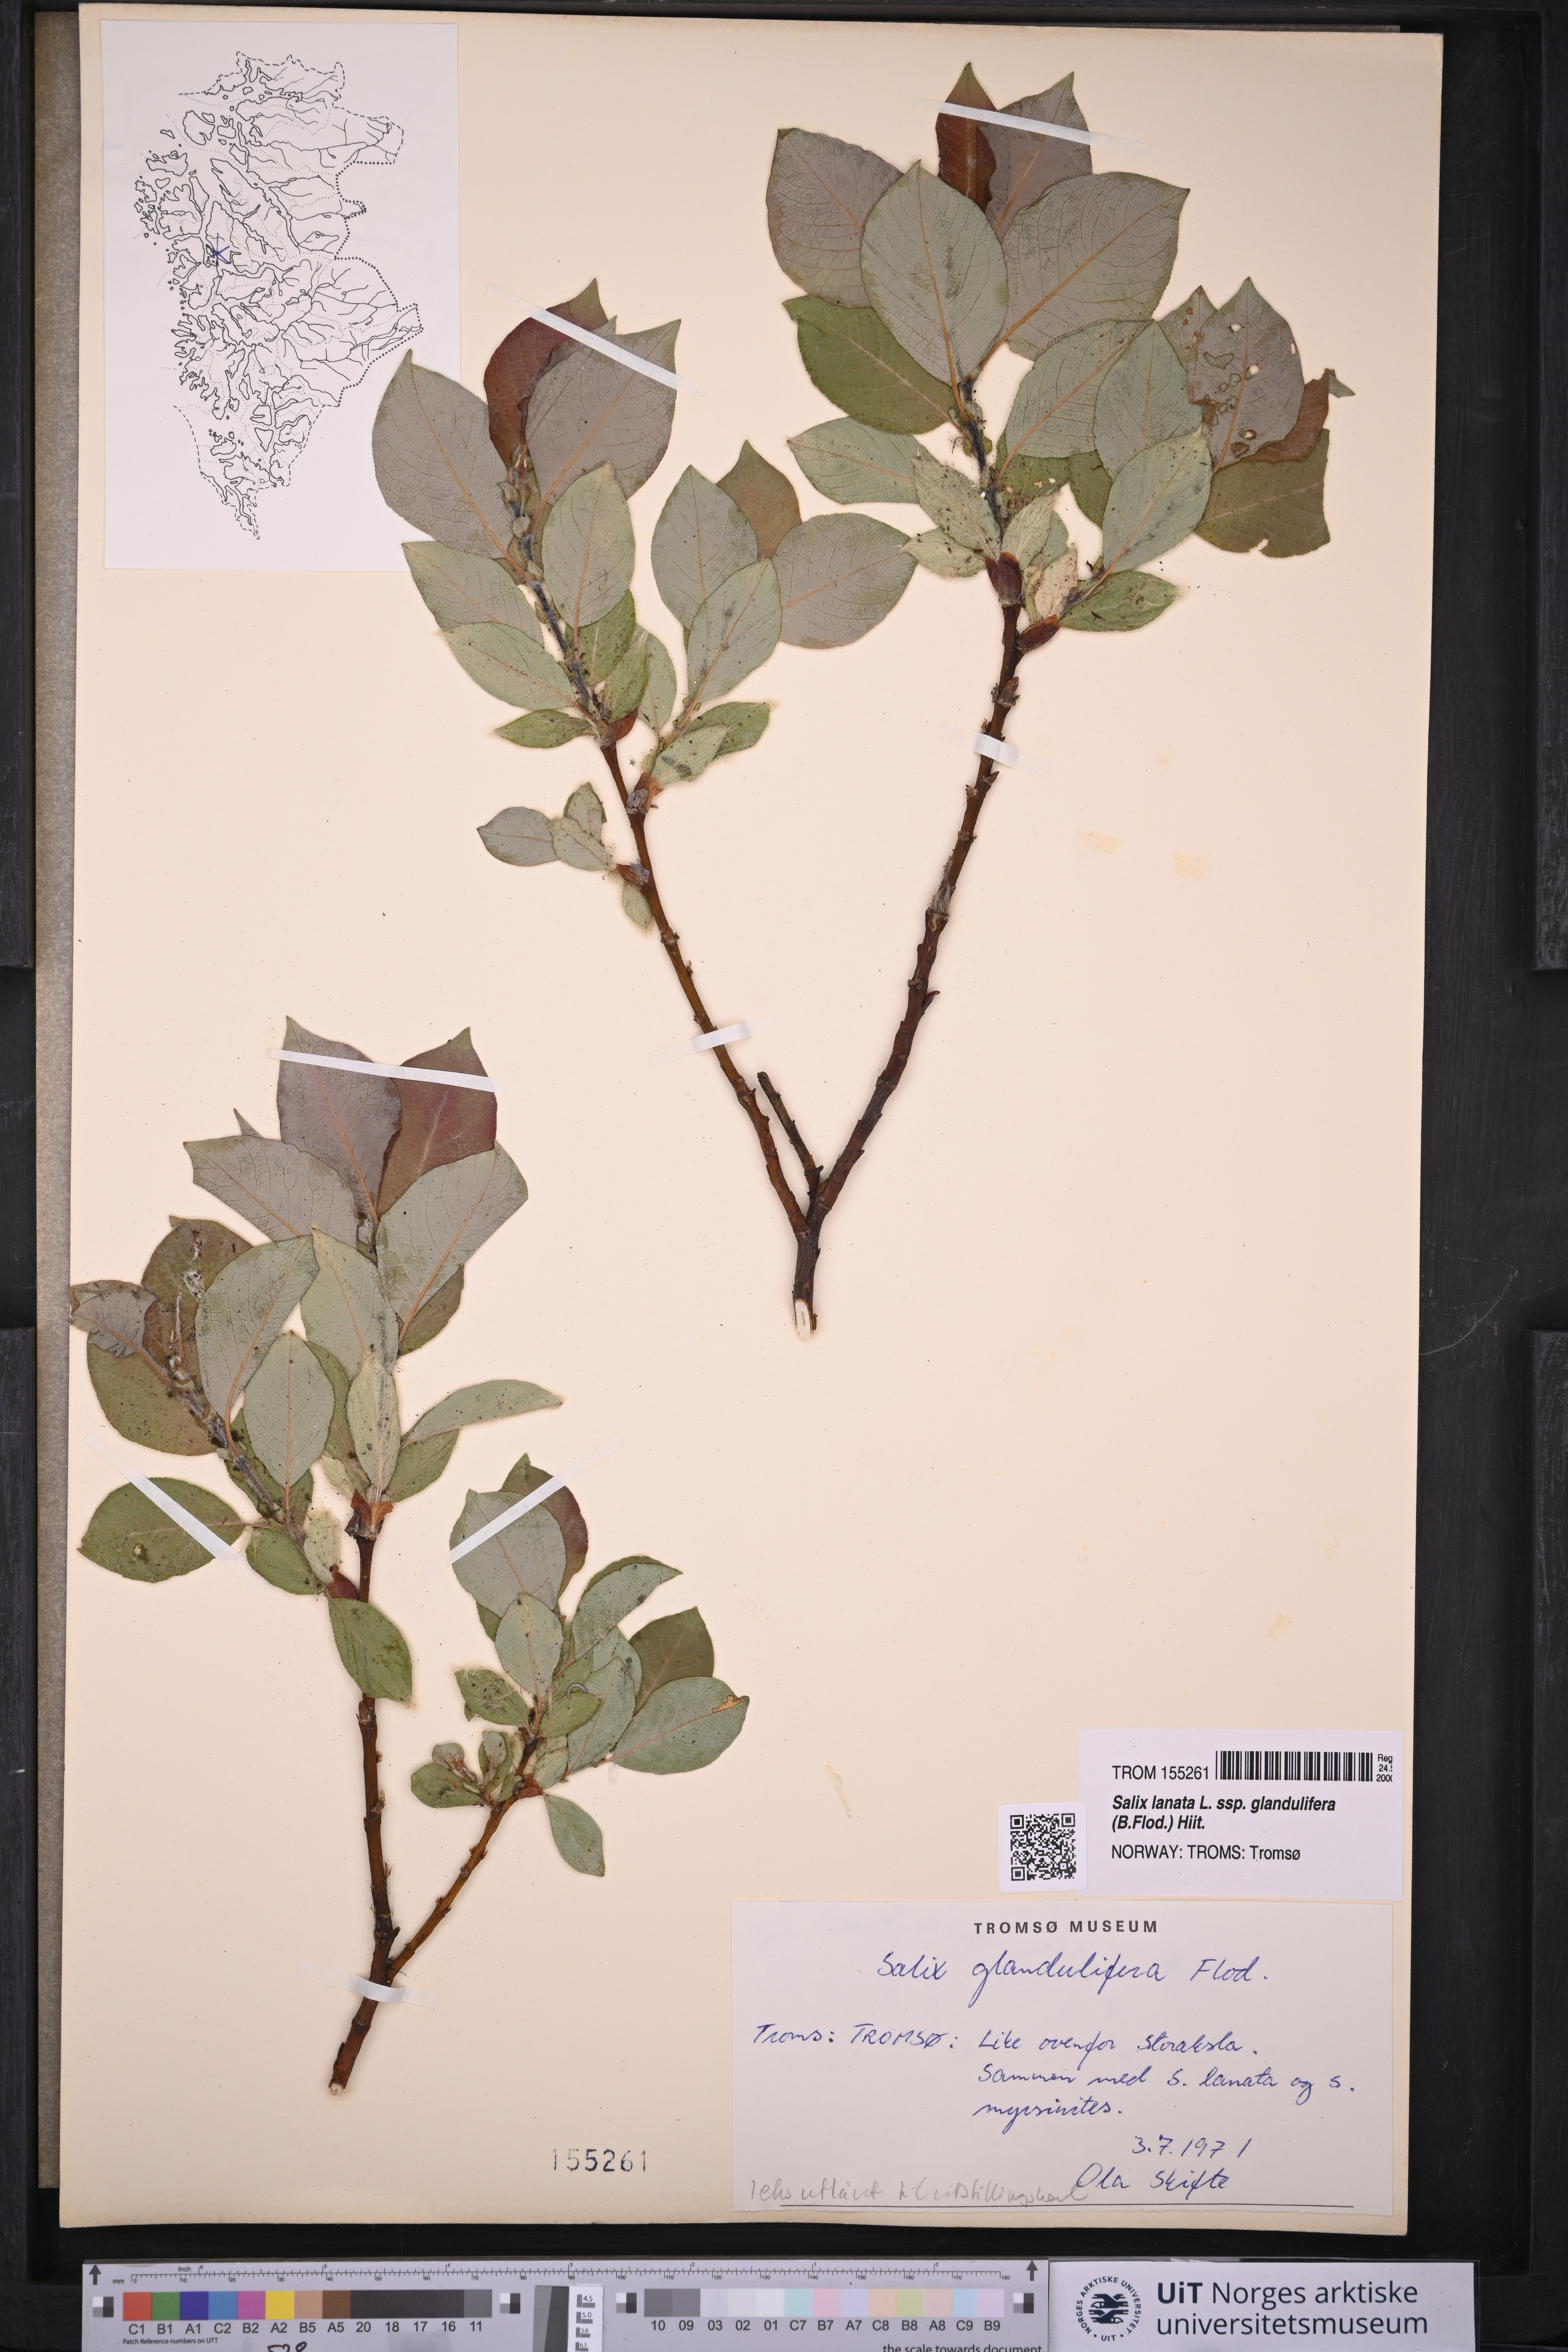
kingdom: Plantae
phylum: Tracheophyta
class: Magnoliopsida
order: Malpighiales
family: Salicaceae
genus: Salix
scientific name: Salix lanata
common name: Woolly willow
